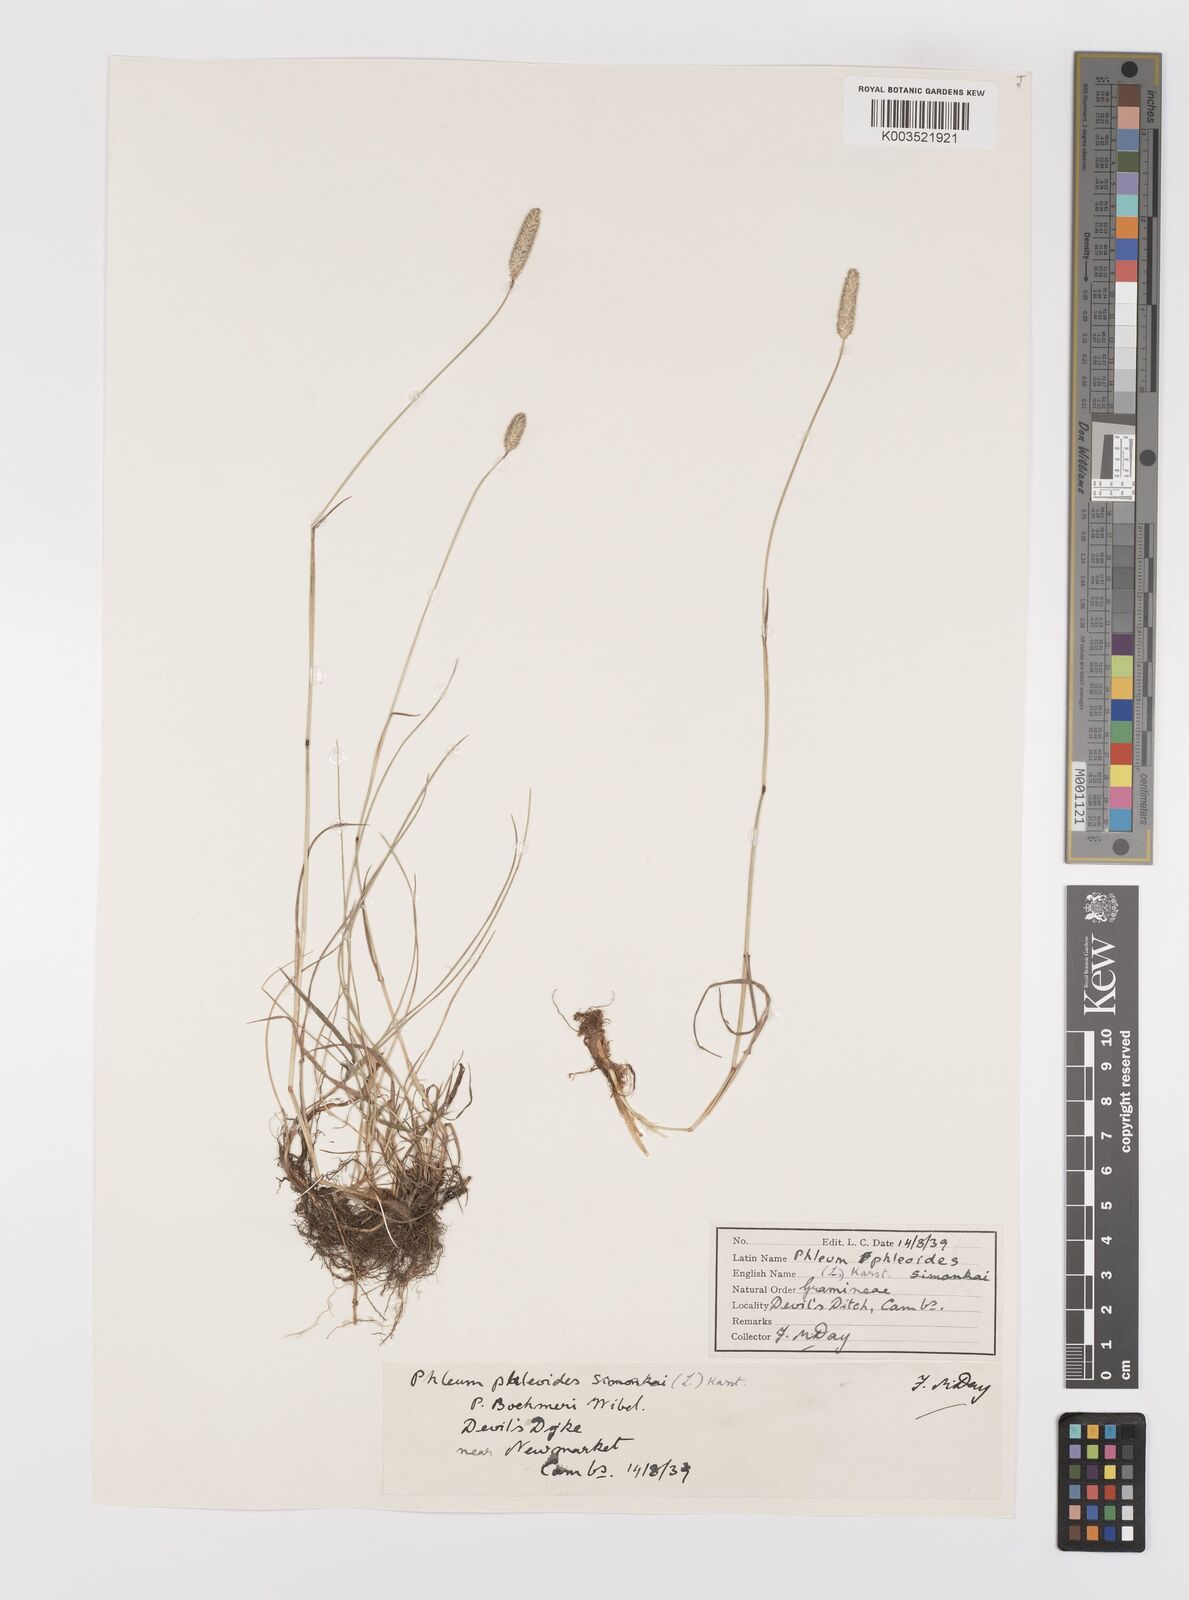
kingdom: Plantae
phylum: Tracheophyta
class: Liliopsida
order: Poales
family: Poaceae
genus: Phleum
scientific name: Phleum bertolonii
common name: Smaller cat's-tail
